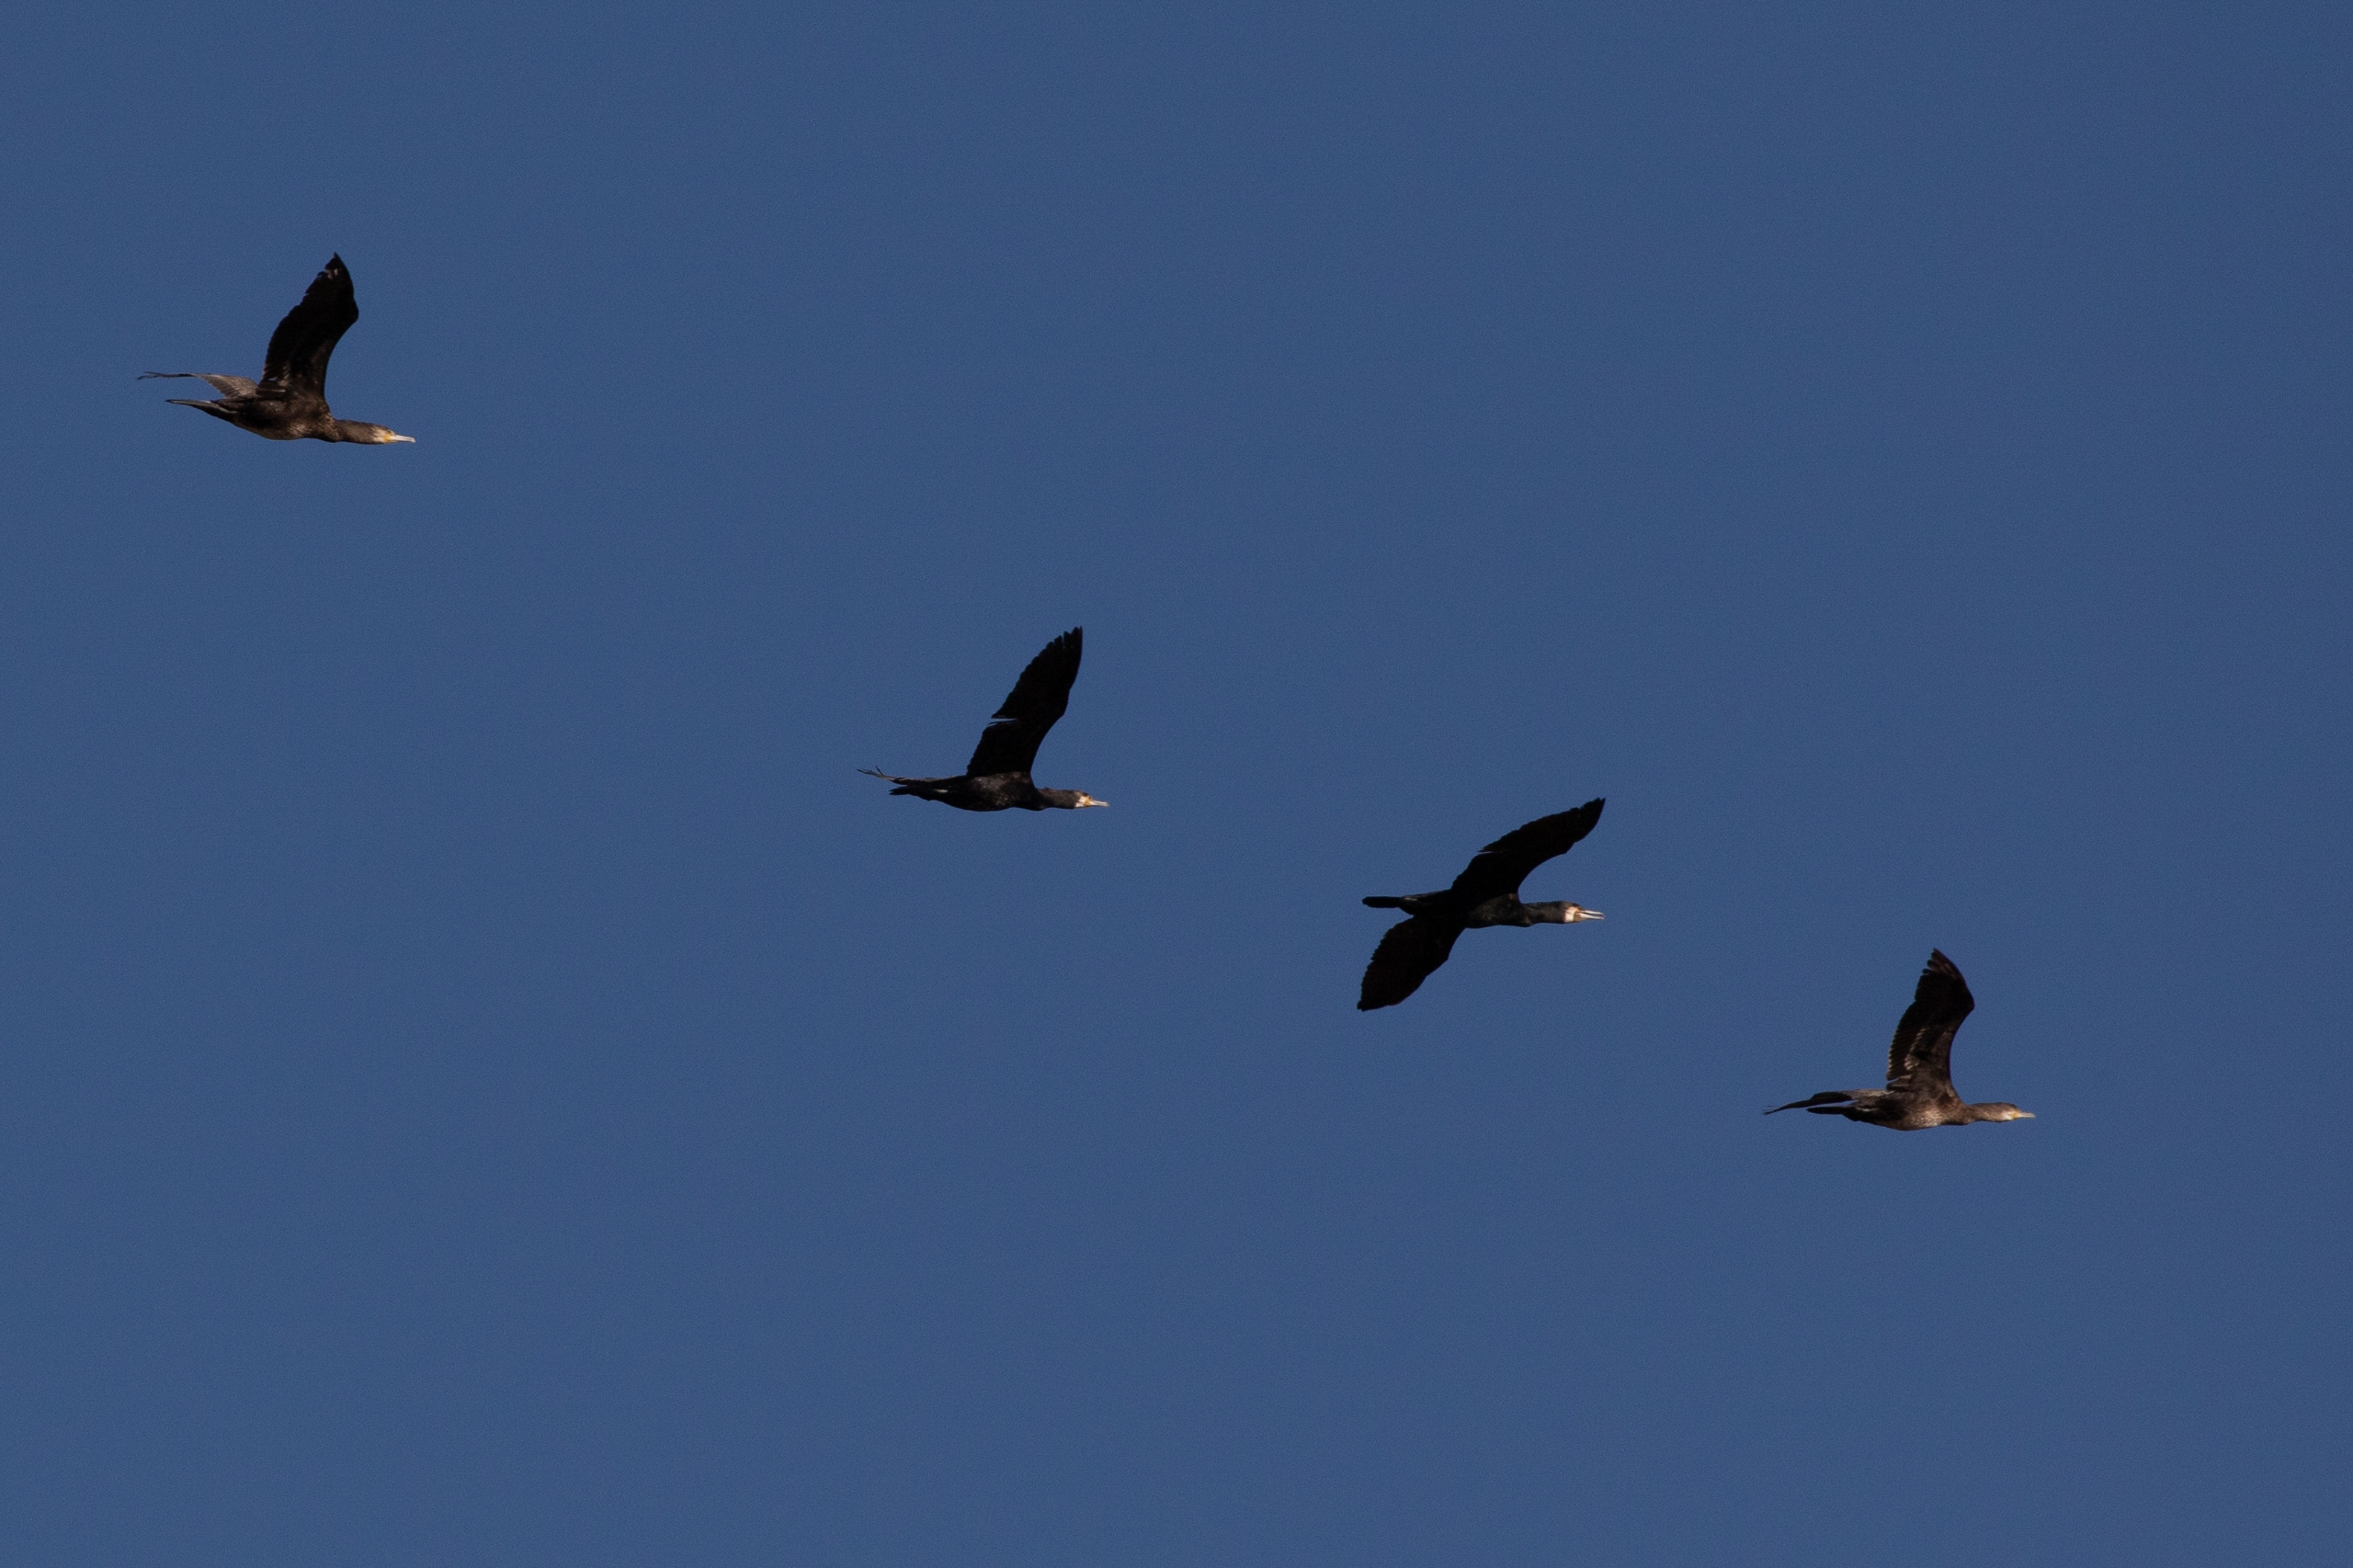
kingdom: Animalia
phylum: Chordata
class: Aves
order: Suliformes
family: Phalacrocoracidae
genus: Phalacrocorax
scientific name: Phalacrocorax carbo
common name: Skarv
